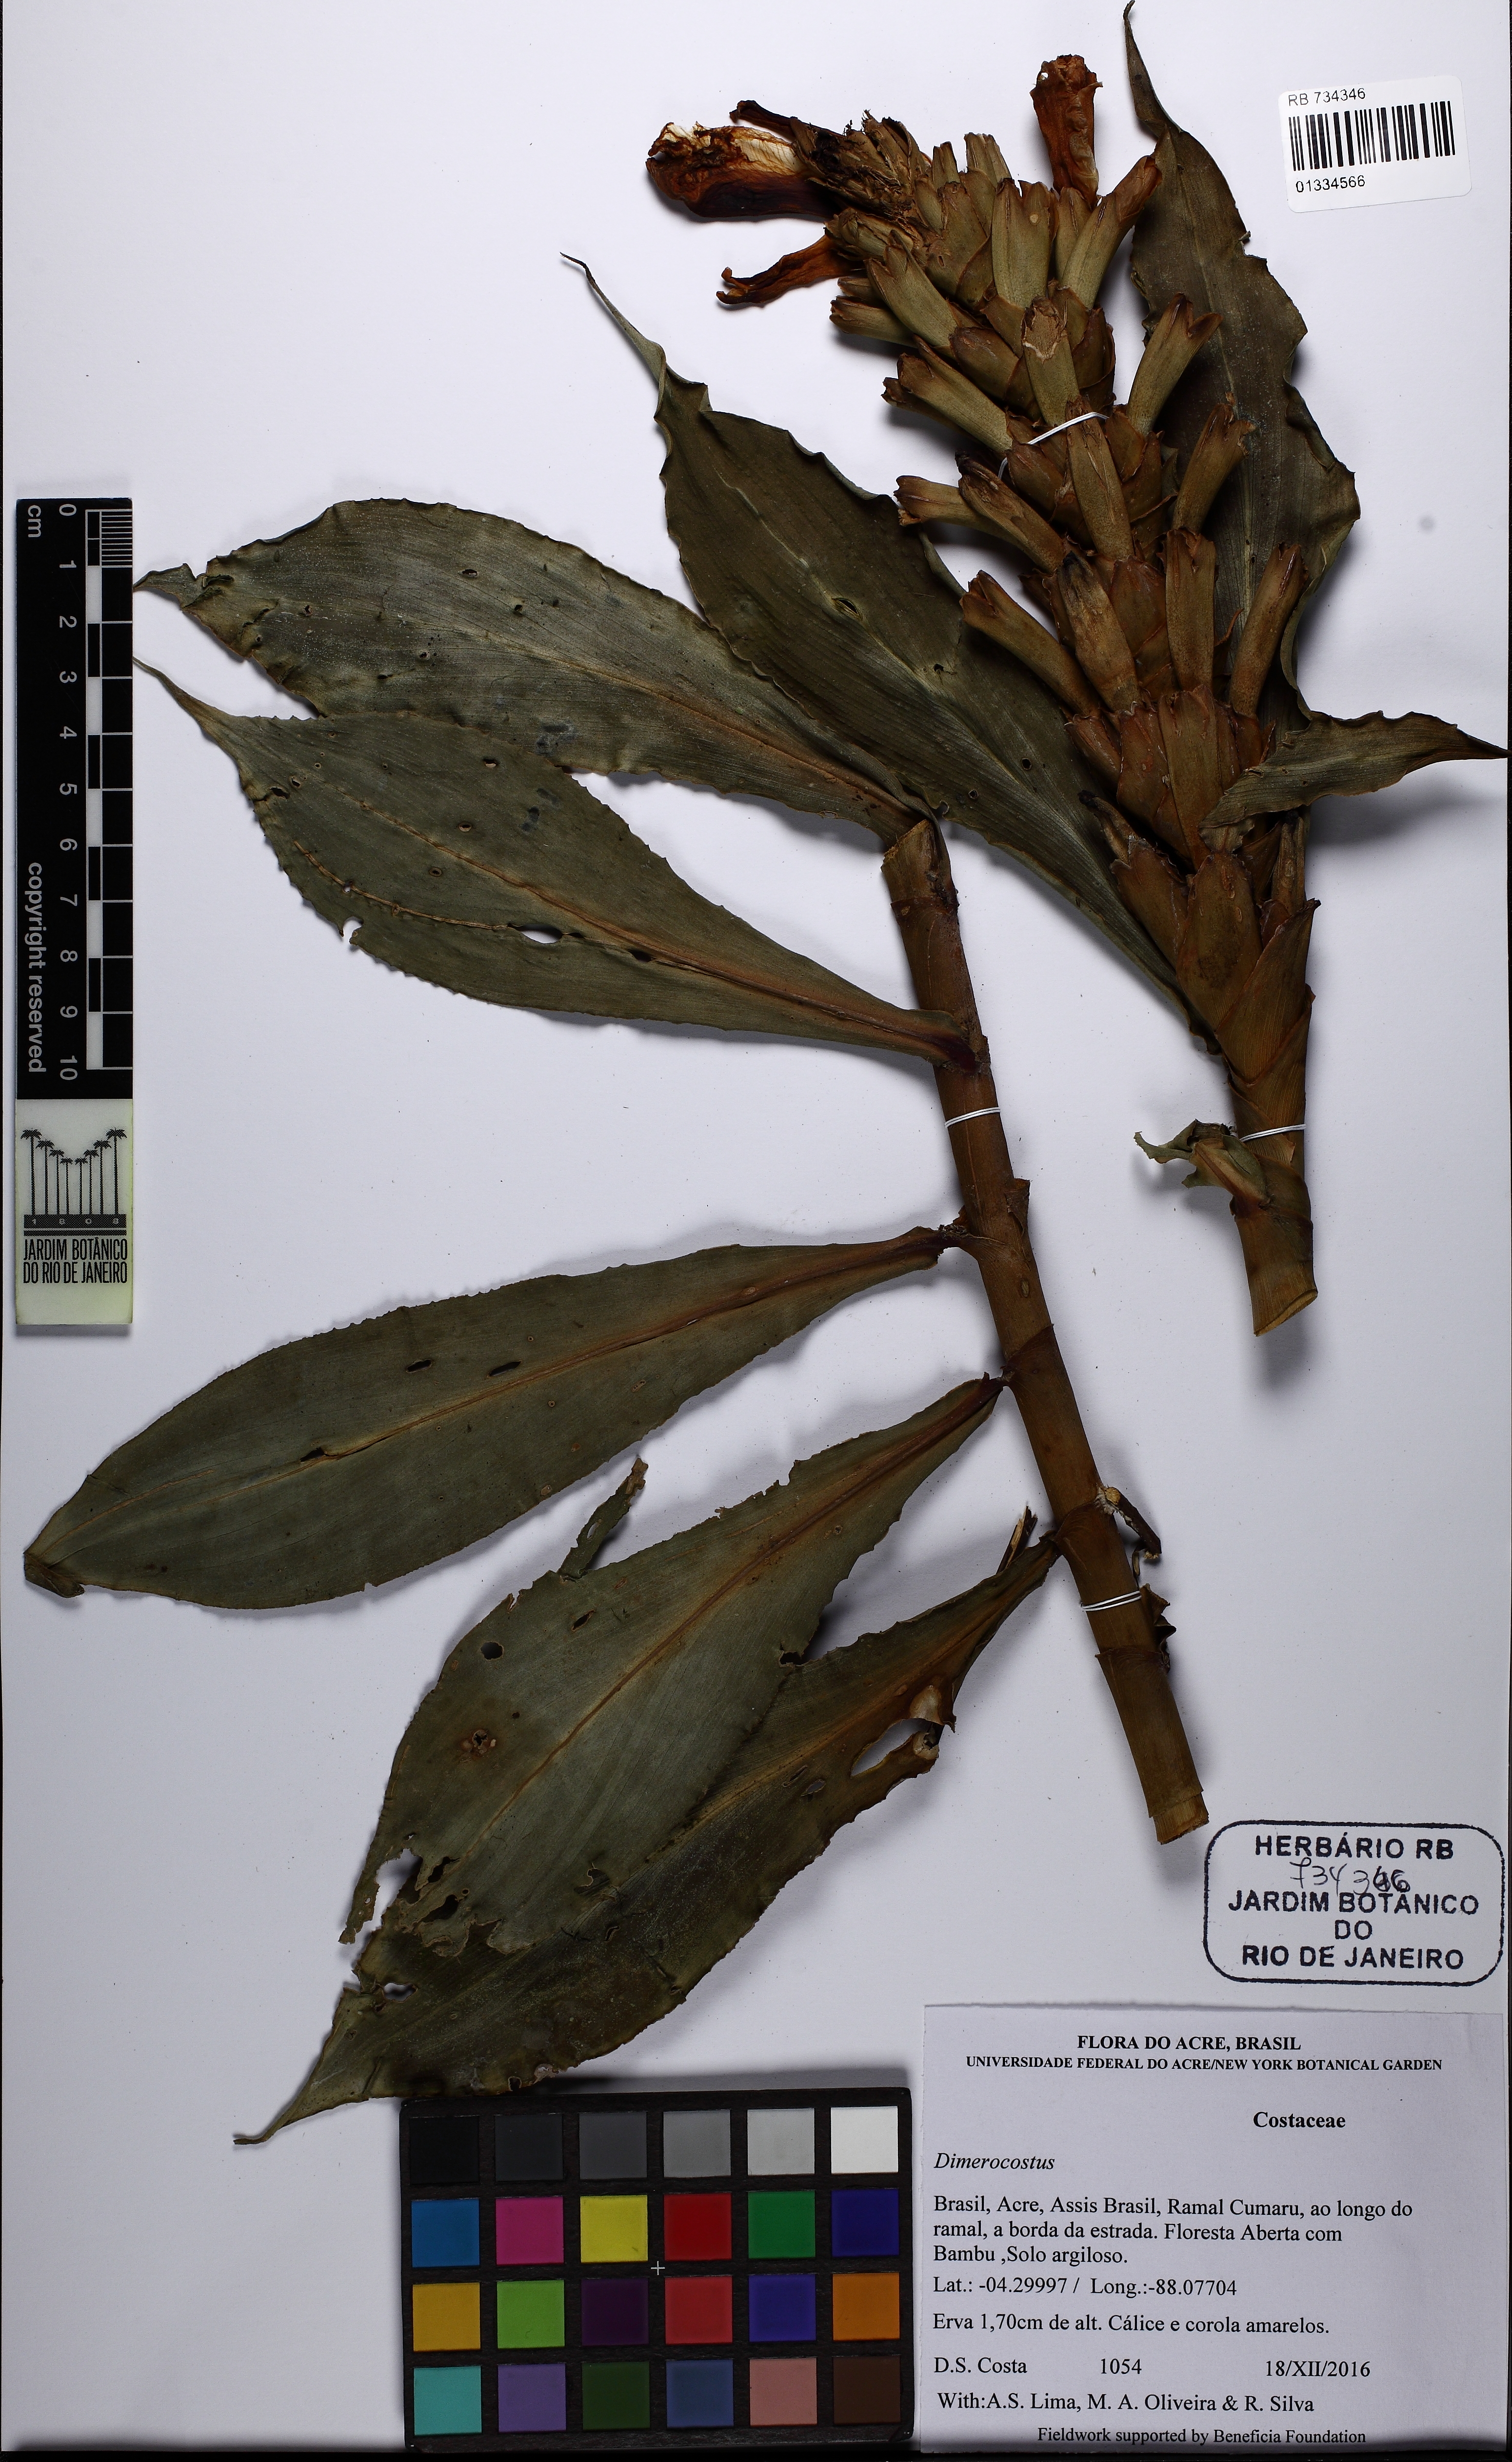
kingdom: Plantae
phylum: Tracheophyta
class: Liliopsida
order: Zingiberales
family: Costaceae
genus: Dimerocostus
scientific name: Dimerocostus
